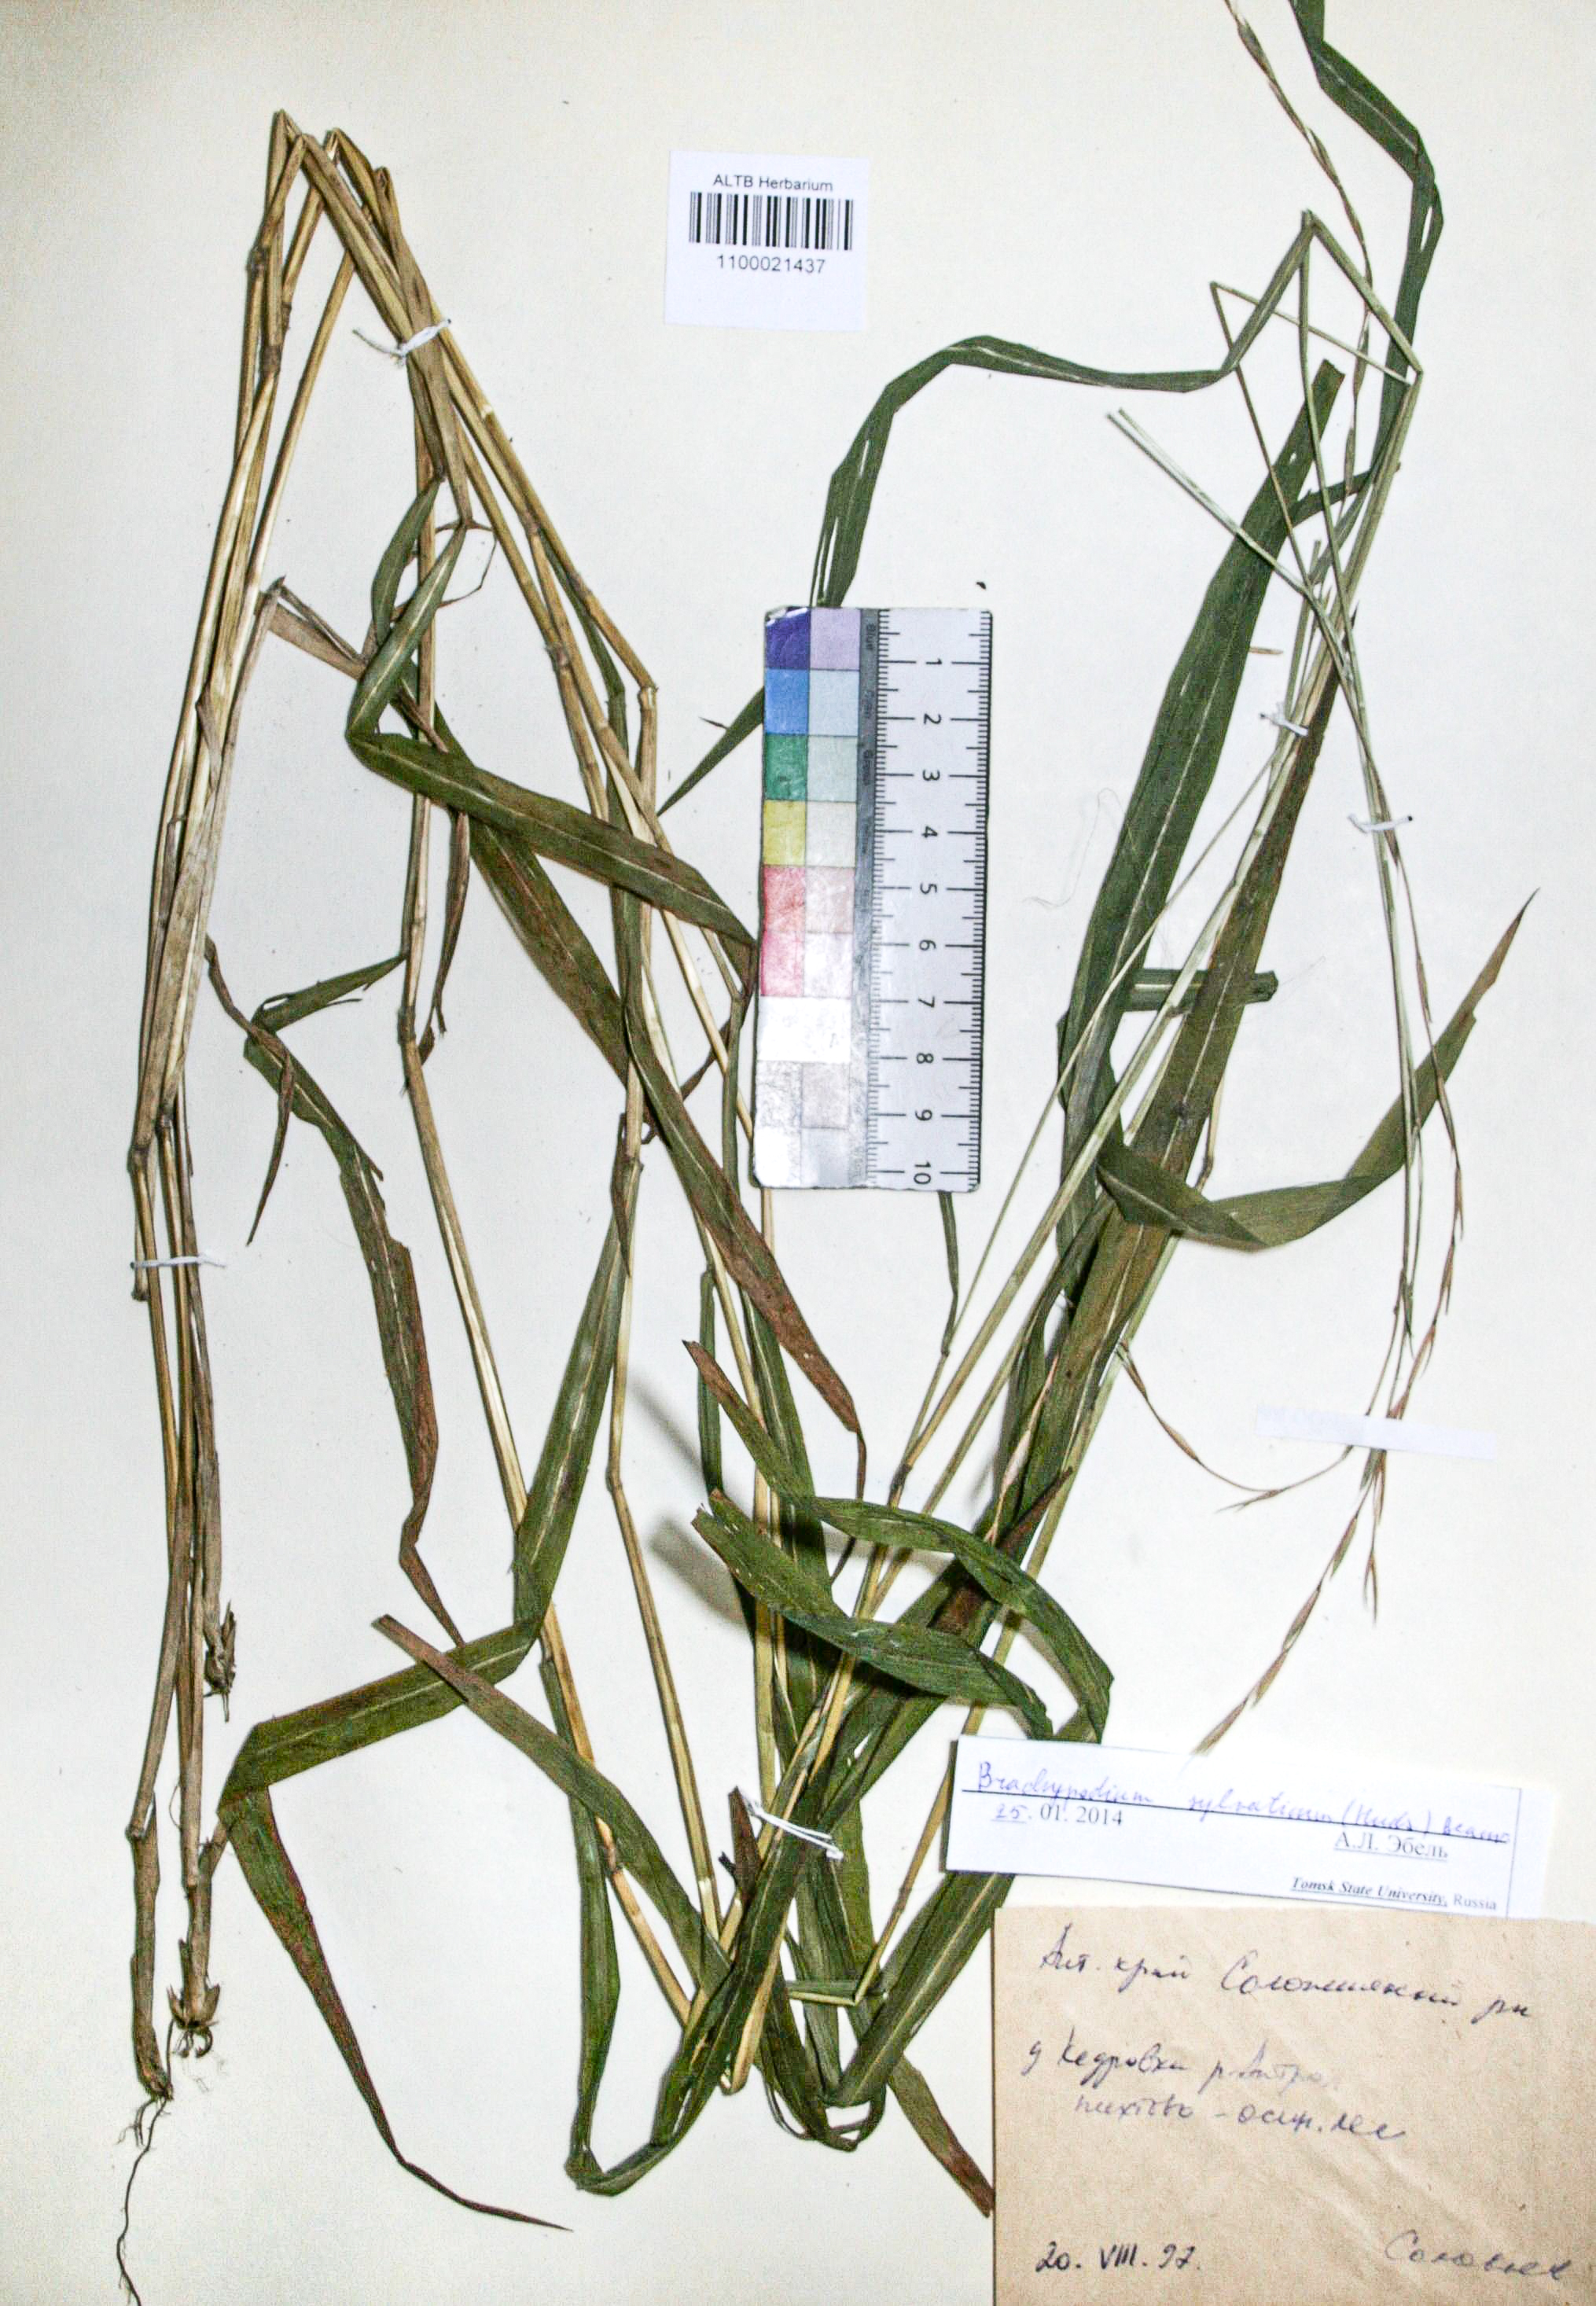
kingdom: Plantae
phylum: Tracheophyta
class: Liliopsida
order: Poales
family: Poaceae
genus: Brachypodium
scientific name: Brachypodium sylvaticum
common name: False-brome
